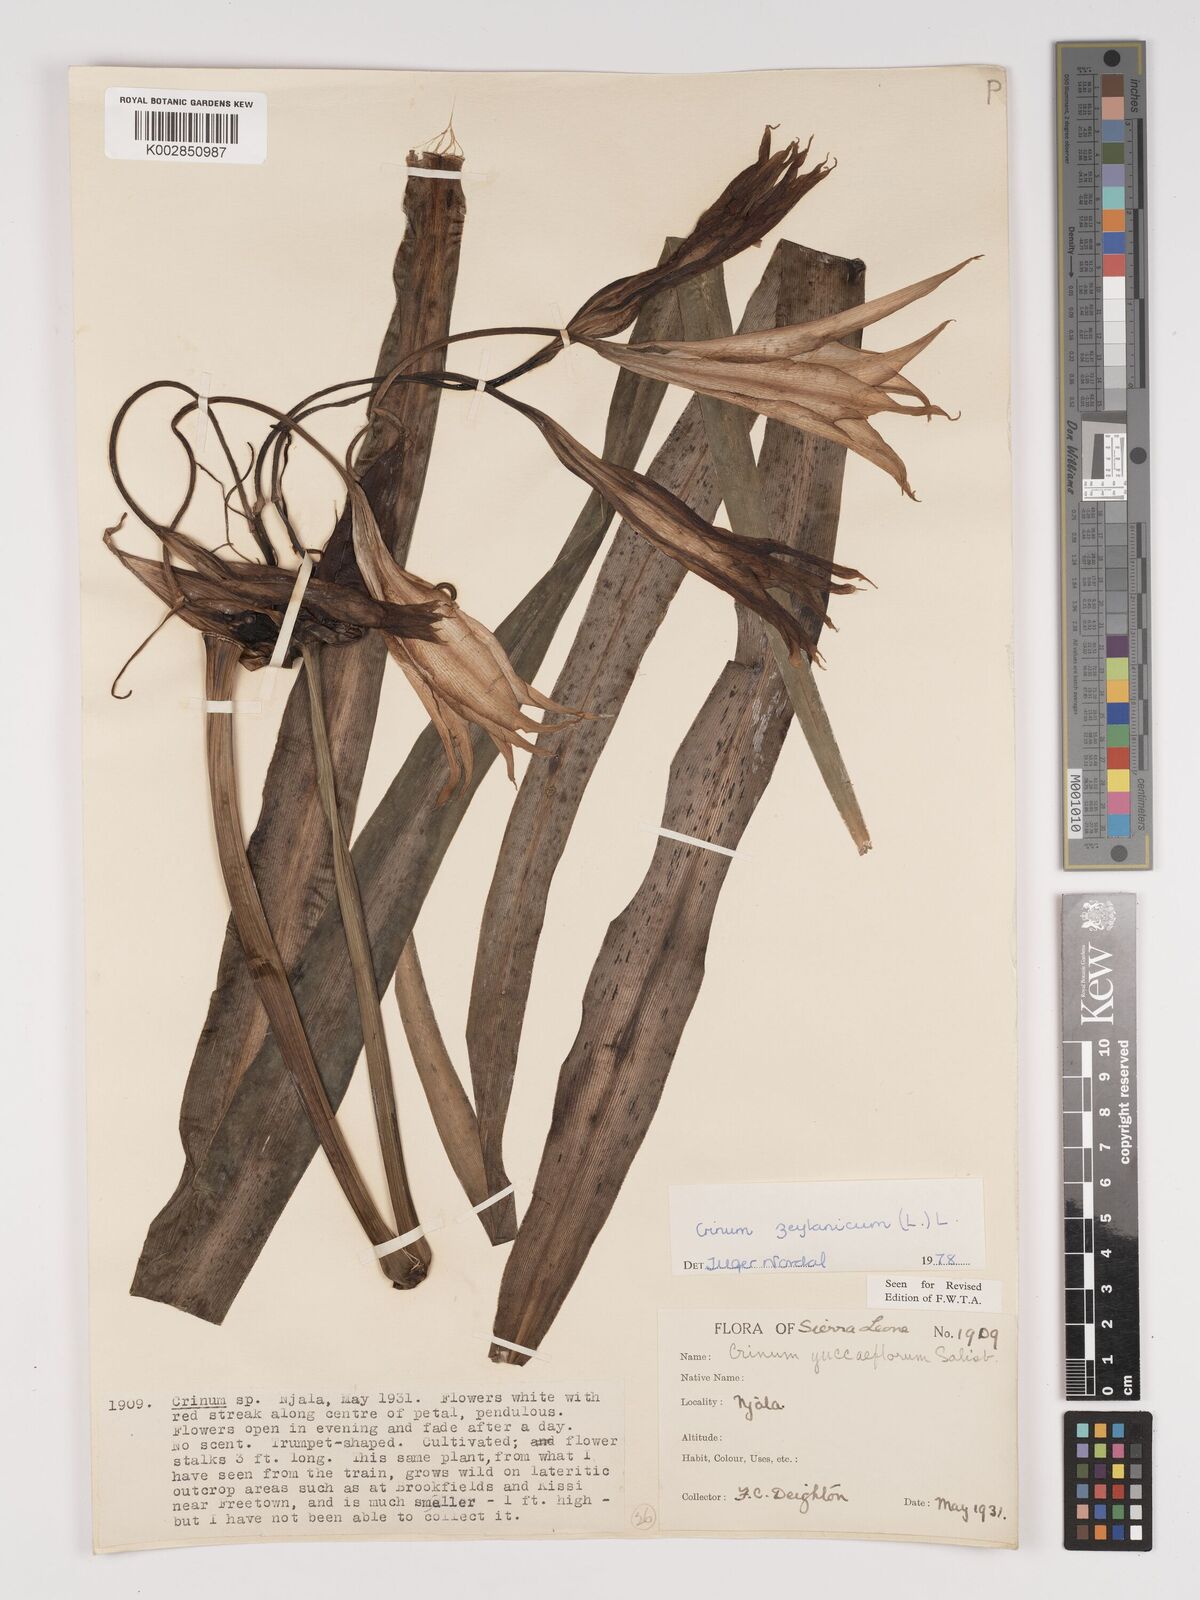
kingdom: Plantae
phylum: Tracheophyta
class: Liliopsida
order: Asparagales
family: Amaryllidaceae
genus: Crinum
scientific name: Crinum ornatum
